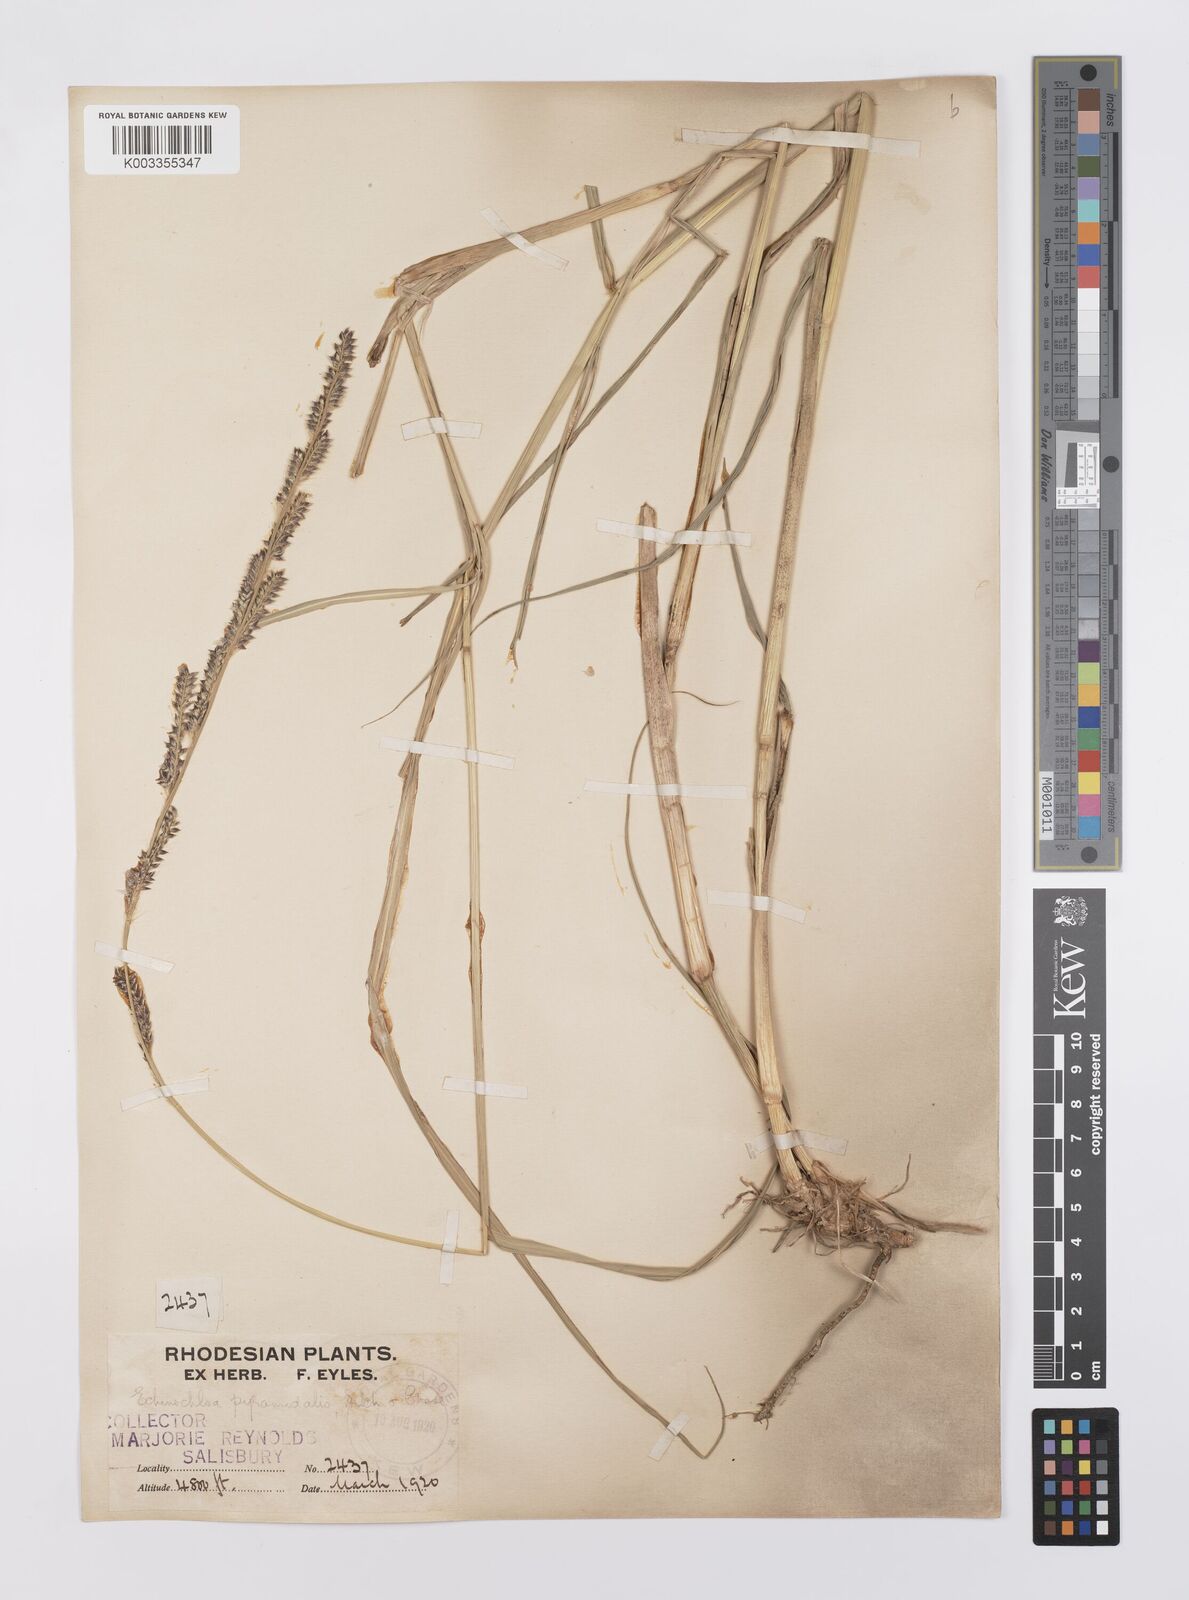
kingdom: Plantae
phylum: Tracheophyta
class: Liliopsida
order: Poales
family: Poaceae
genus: Echinochloa
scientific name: Echinochloa pyramidalis
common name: Antelope grass
